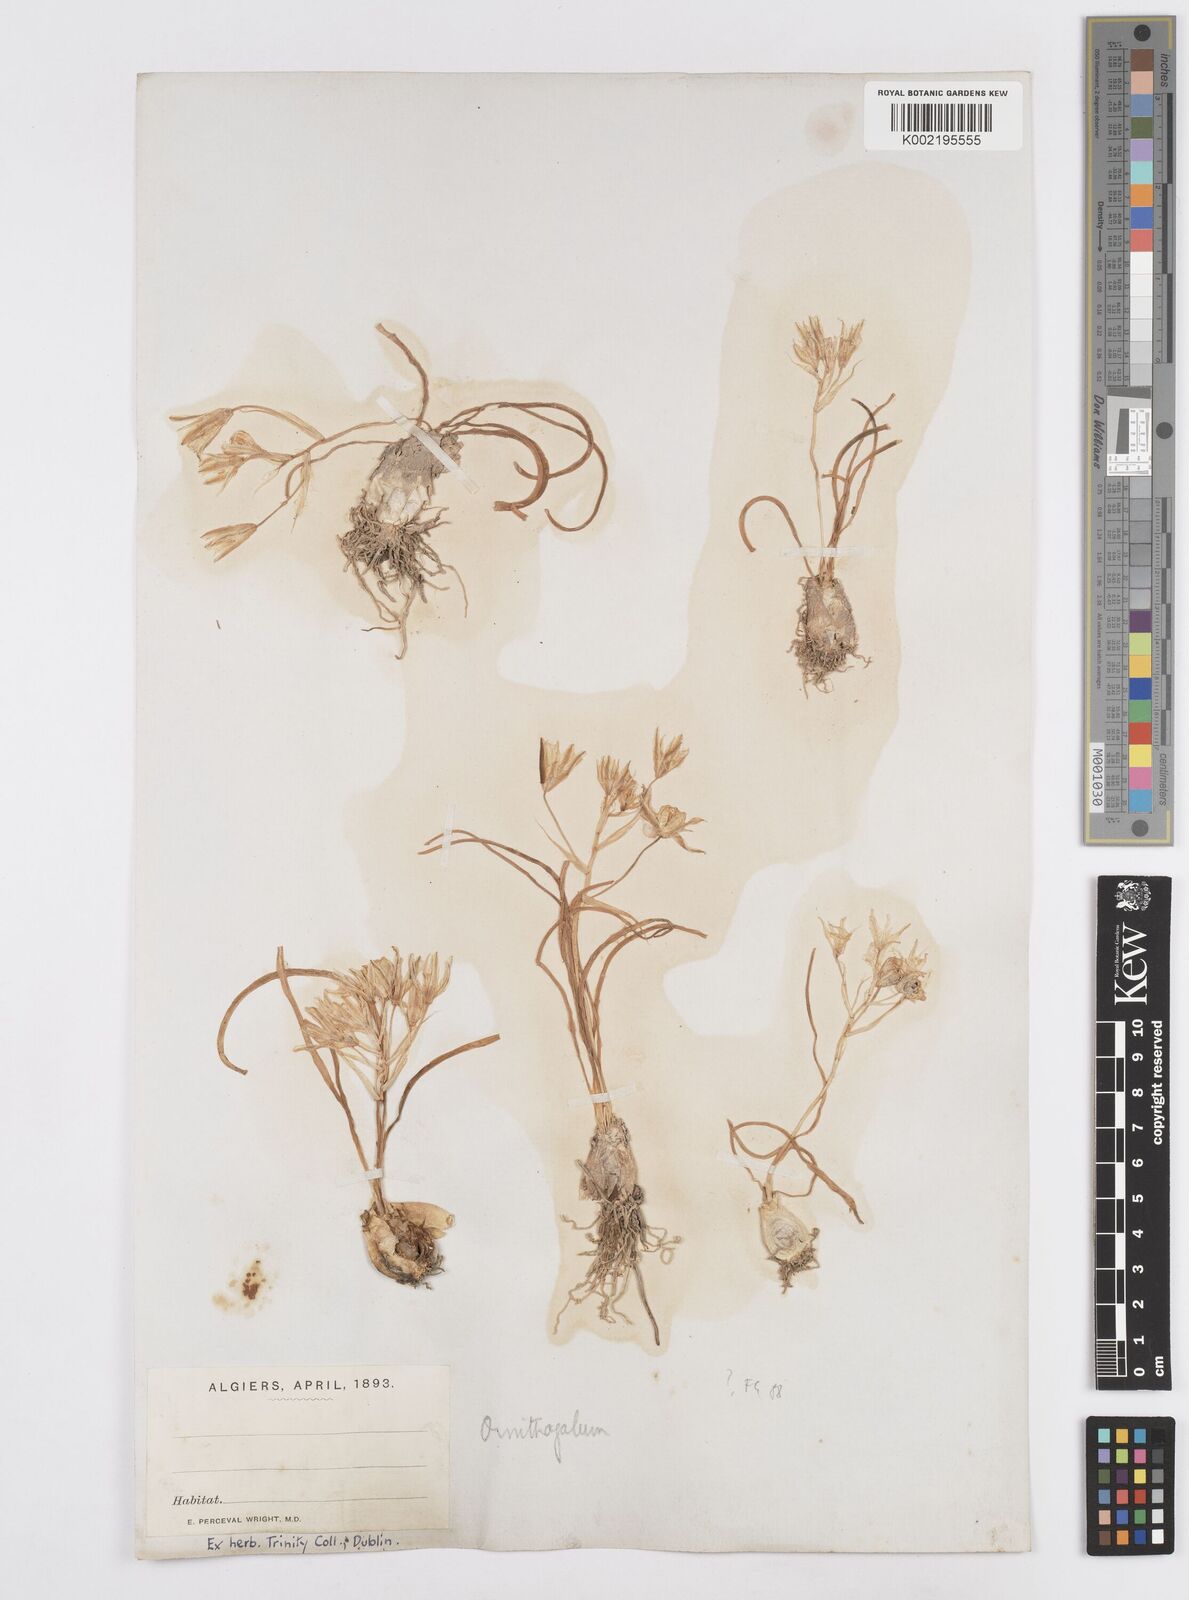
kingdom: Plantae
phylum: Tracheophyta
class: Liliopsida
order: Asparagales
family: Asparagaceae
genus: Ornithogalum
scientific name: Ornithogalum umbellatum
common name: Garden star-of-bethlehem
